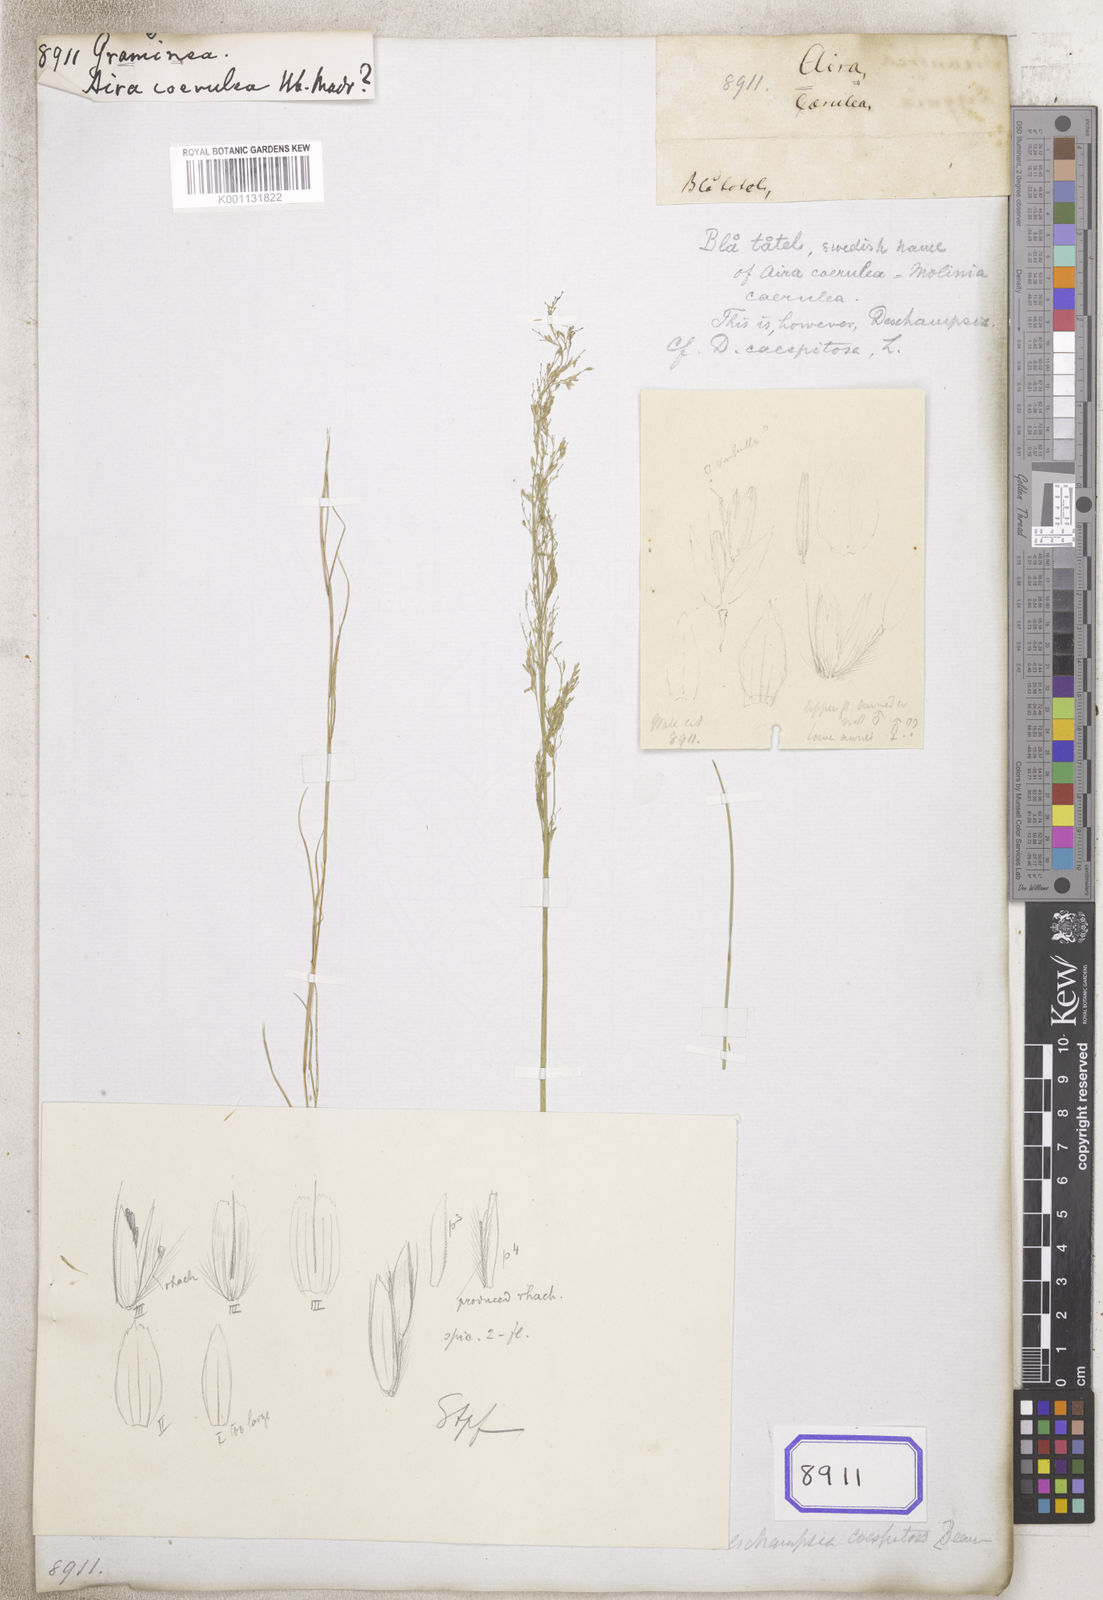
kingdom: Plantae
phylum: Tracheophyta
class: Liliopsida
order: Poales
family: Poaceae
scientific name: Poaceae
